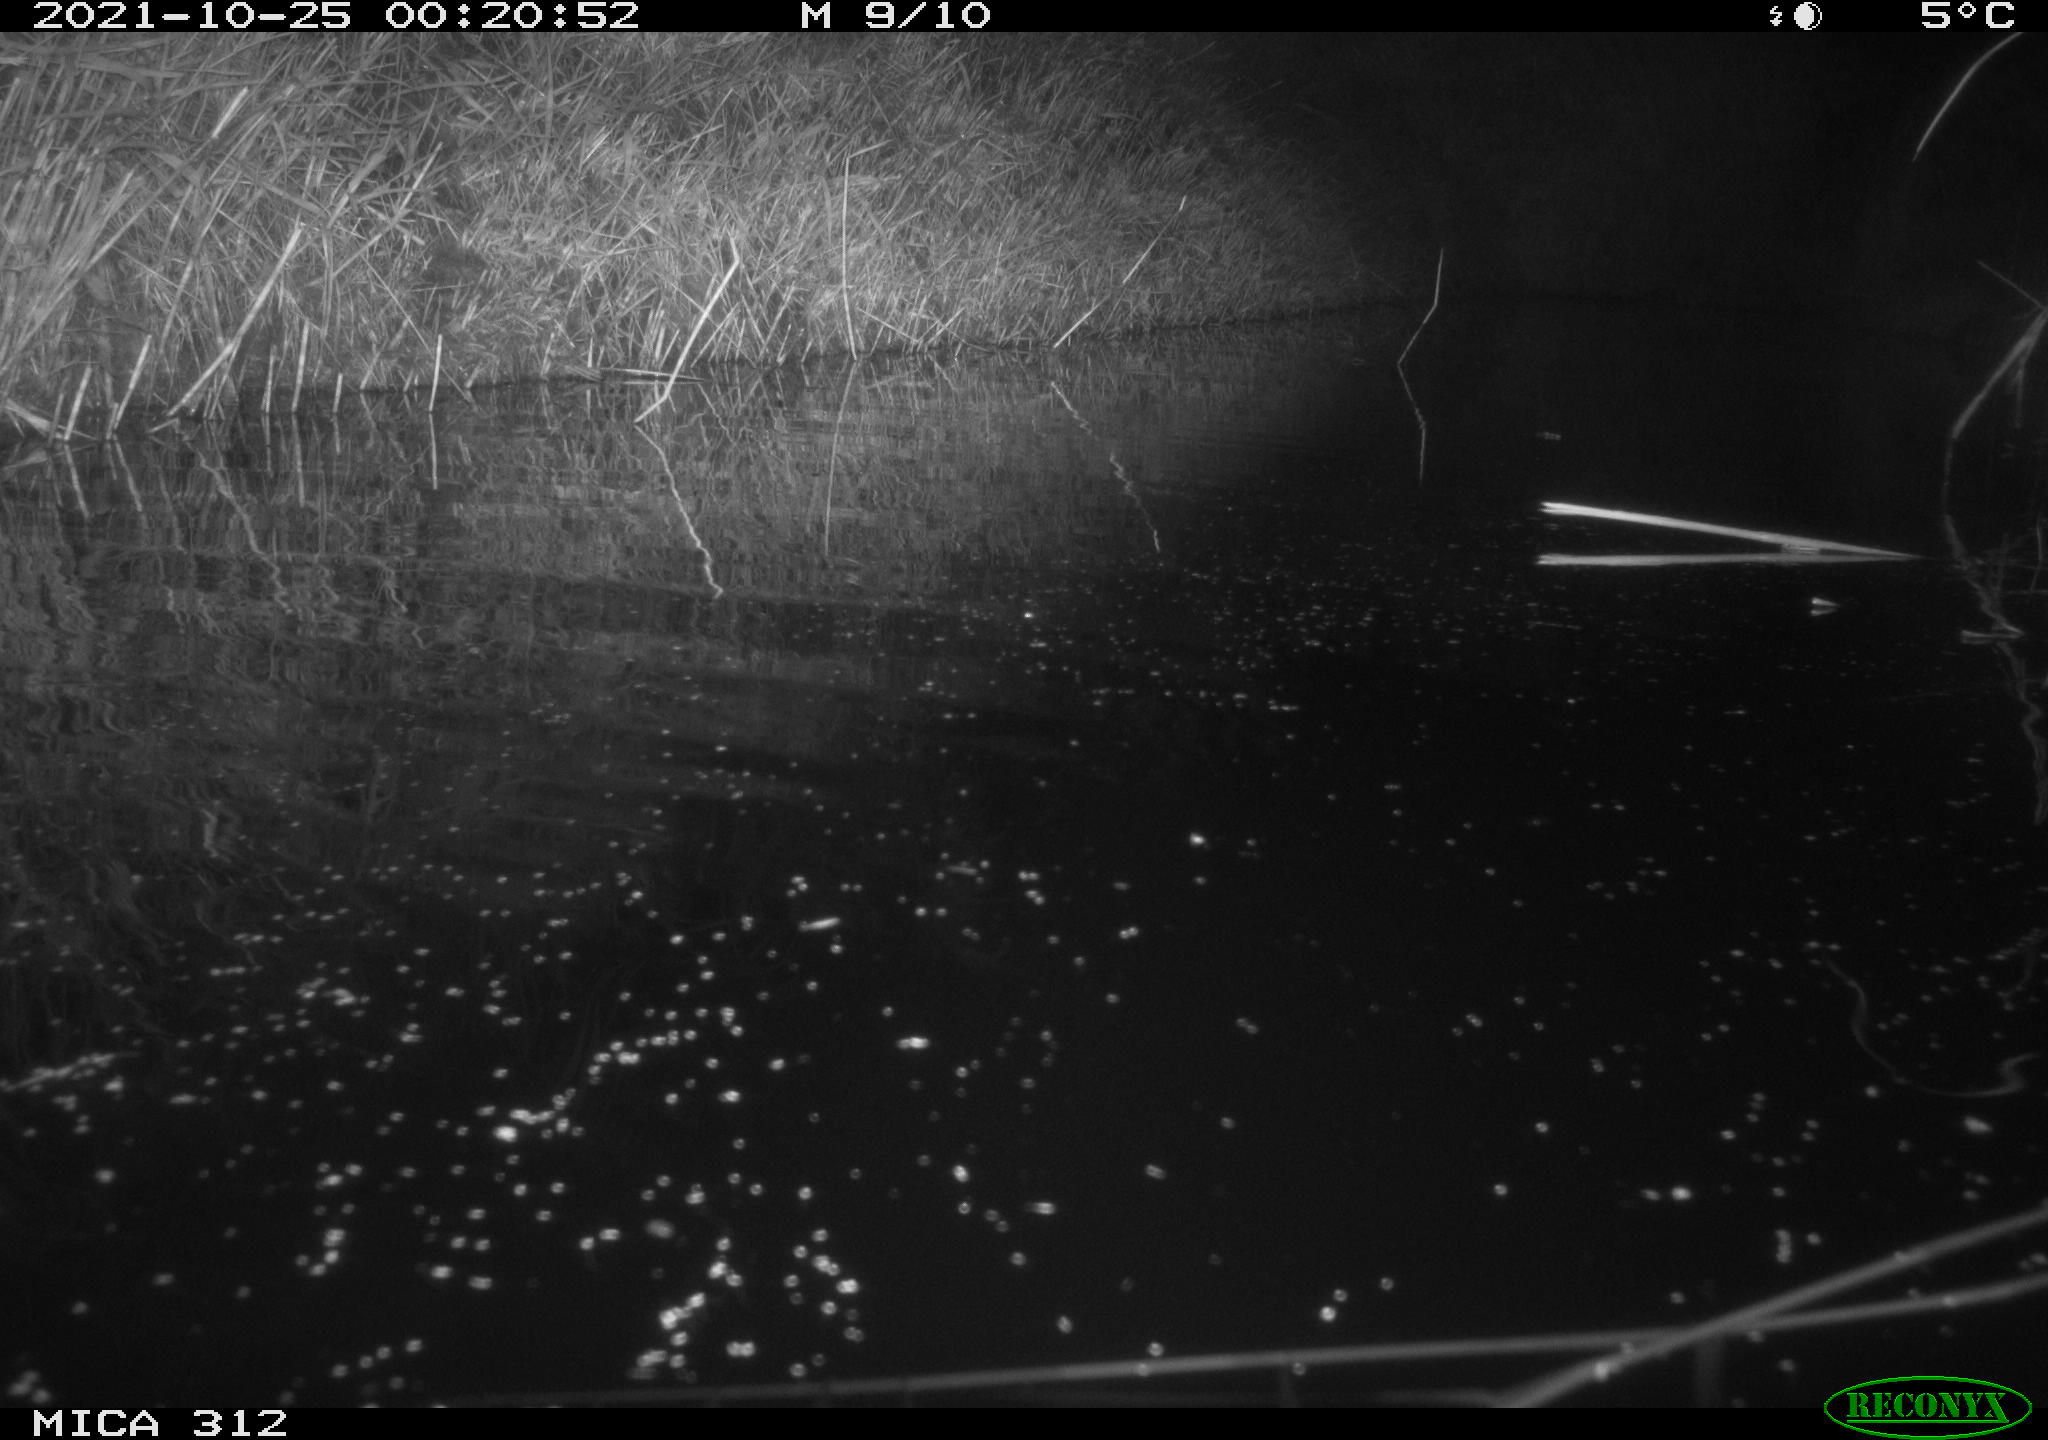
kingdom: Animalia
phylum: Chordata
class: Mammalia
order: Rodentia
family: Muridae
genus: Rattus
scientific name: Rattus norvegicus
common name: Brown rat
